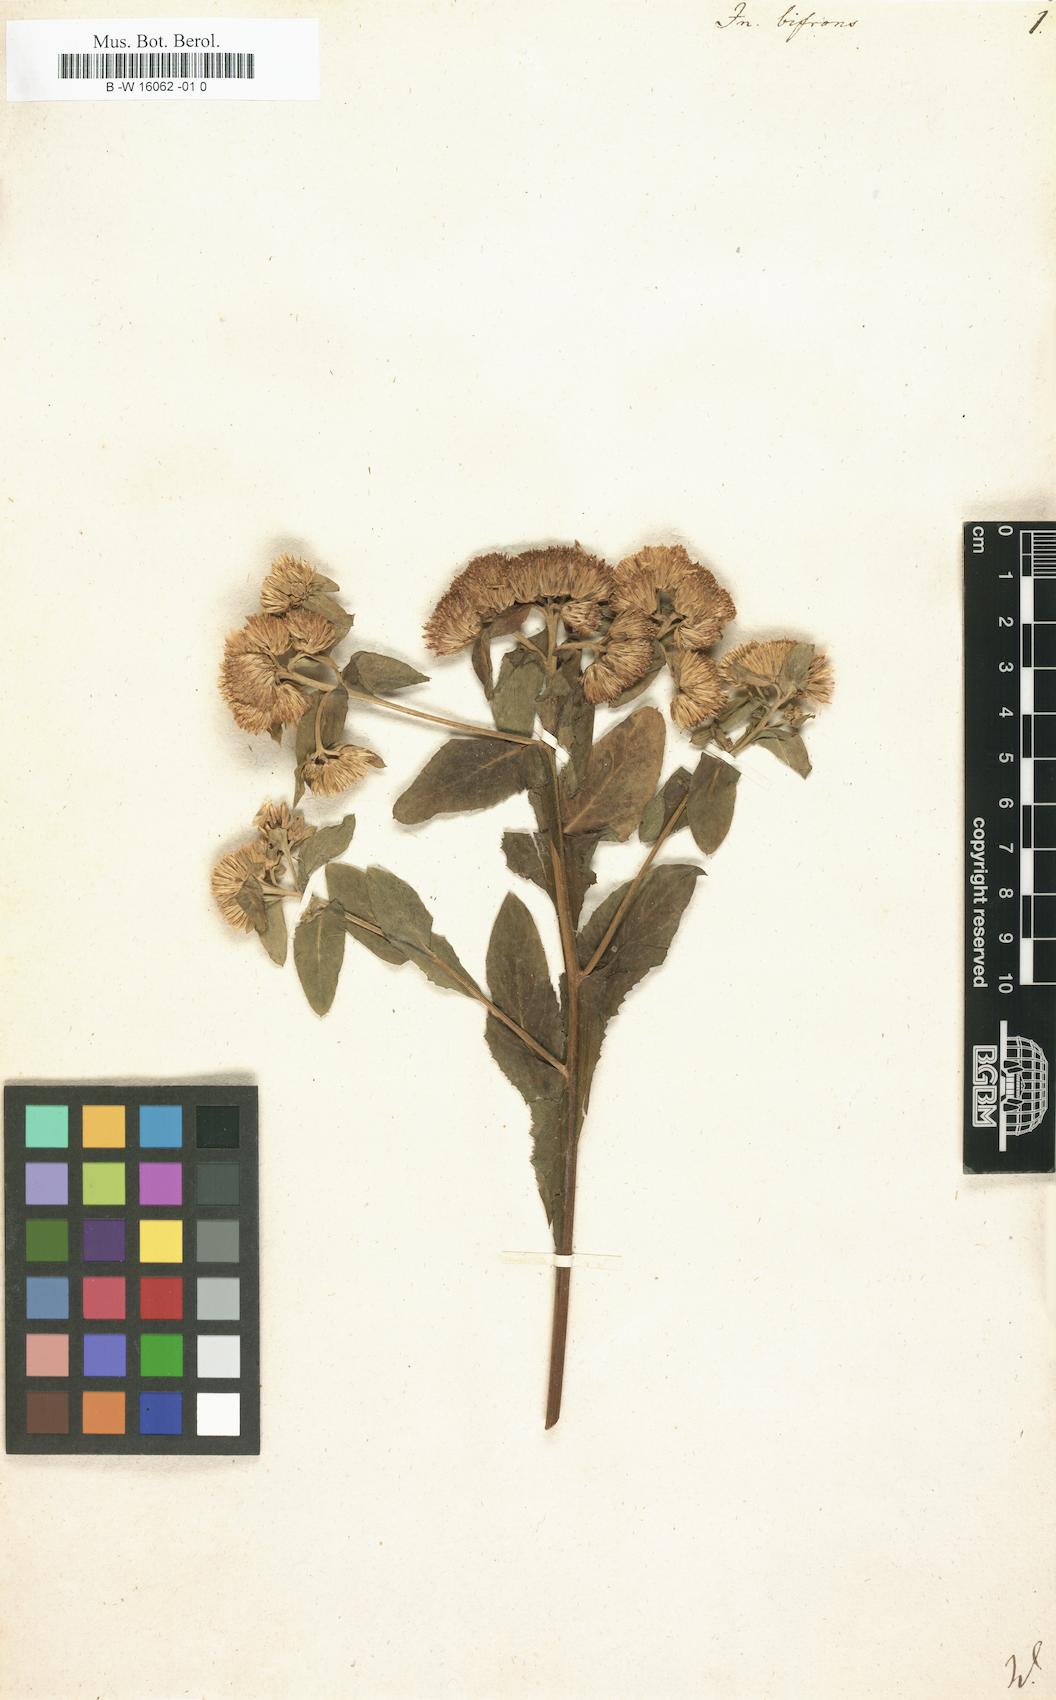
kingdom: Plantae
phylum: Tracheophyta
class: Magnoliopsida
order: Asterales
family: Asteraceae
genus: Pentanema
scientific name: Pentanema bifrons
